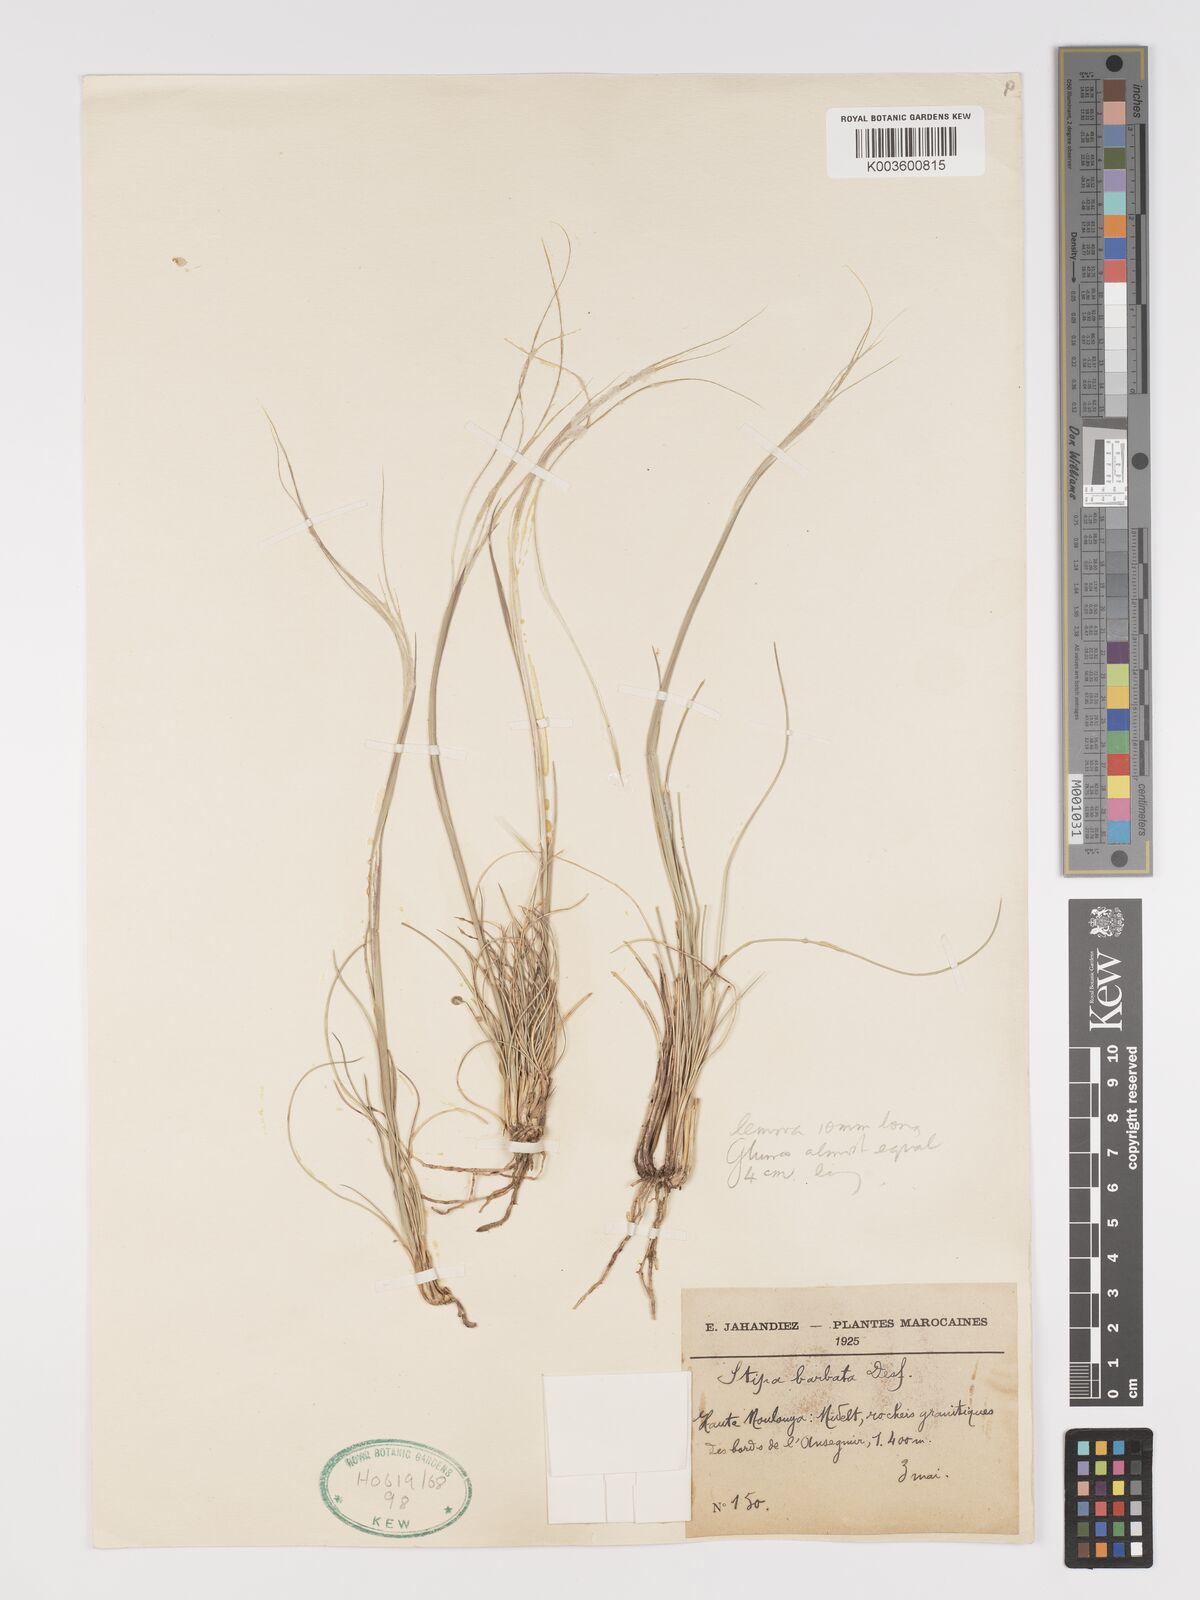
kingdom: Plantae
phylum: Tracheophyta
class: Liliopsida
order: Poales
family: Poaceae
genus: Stipa
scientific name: Stipa barbata
